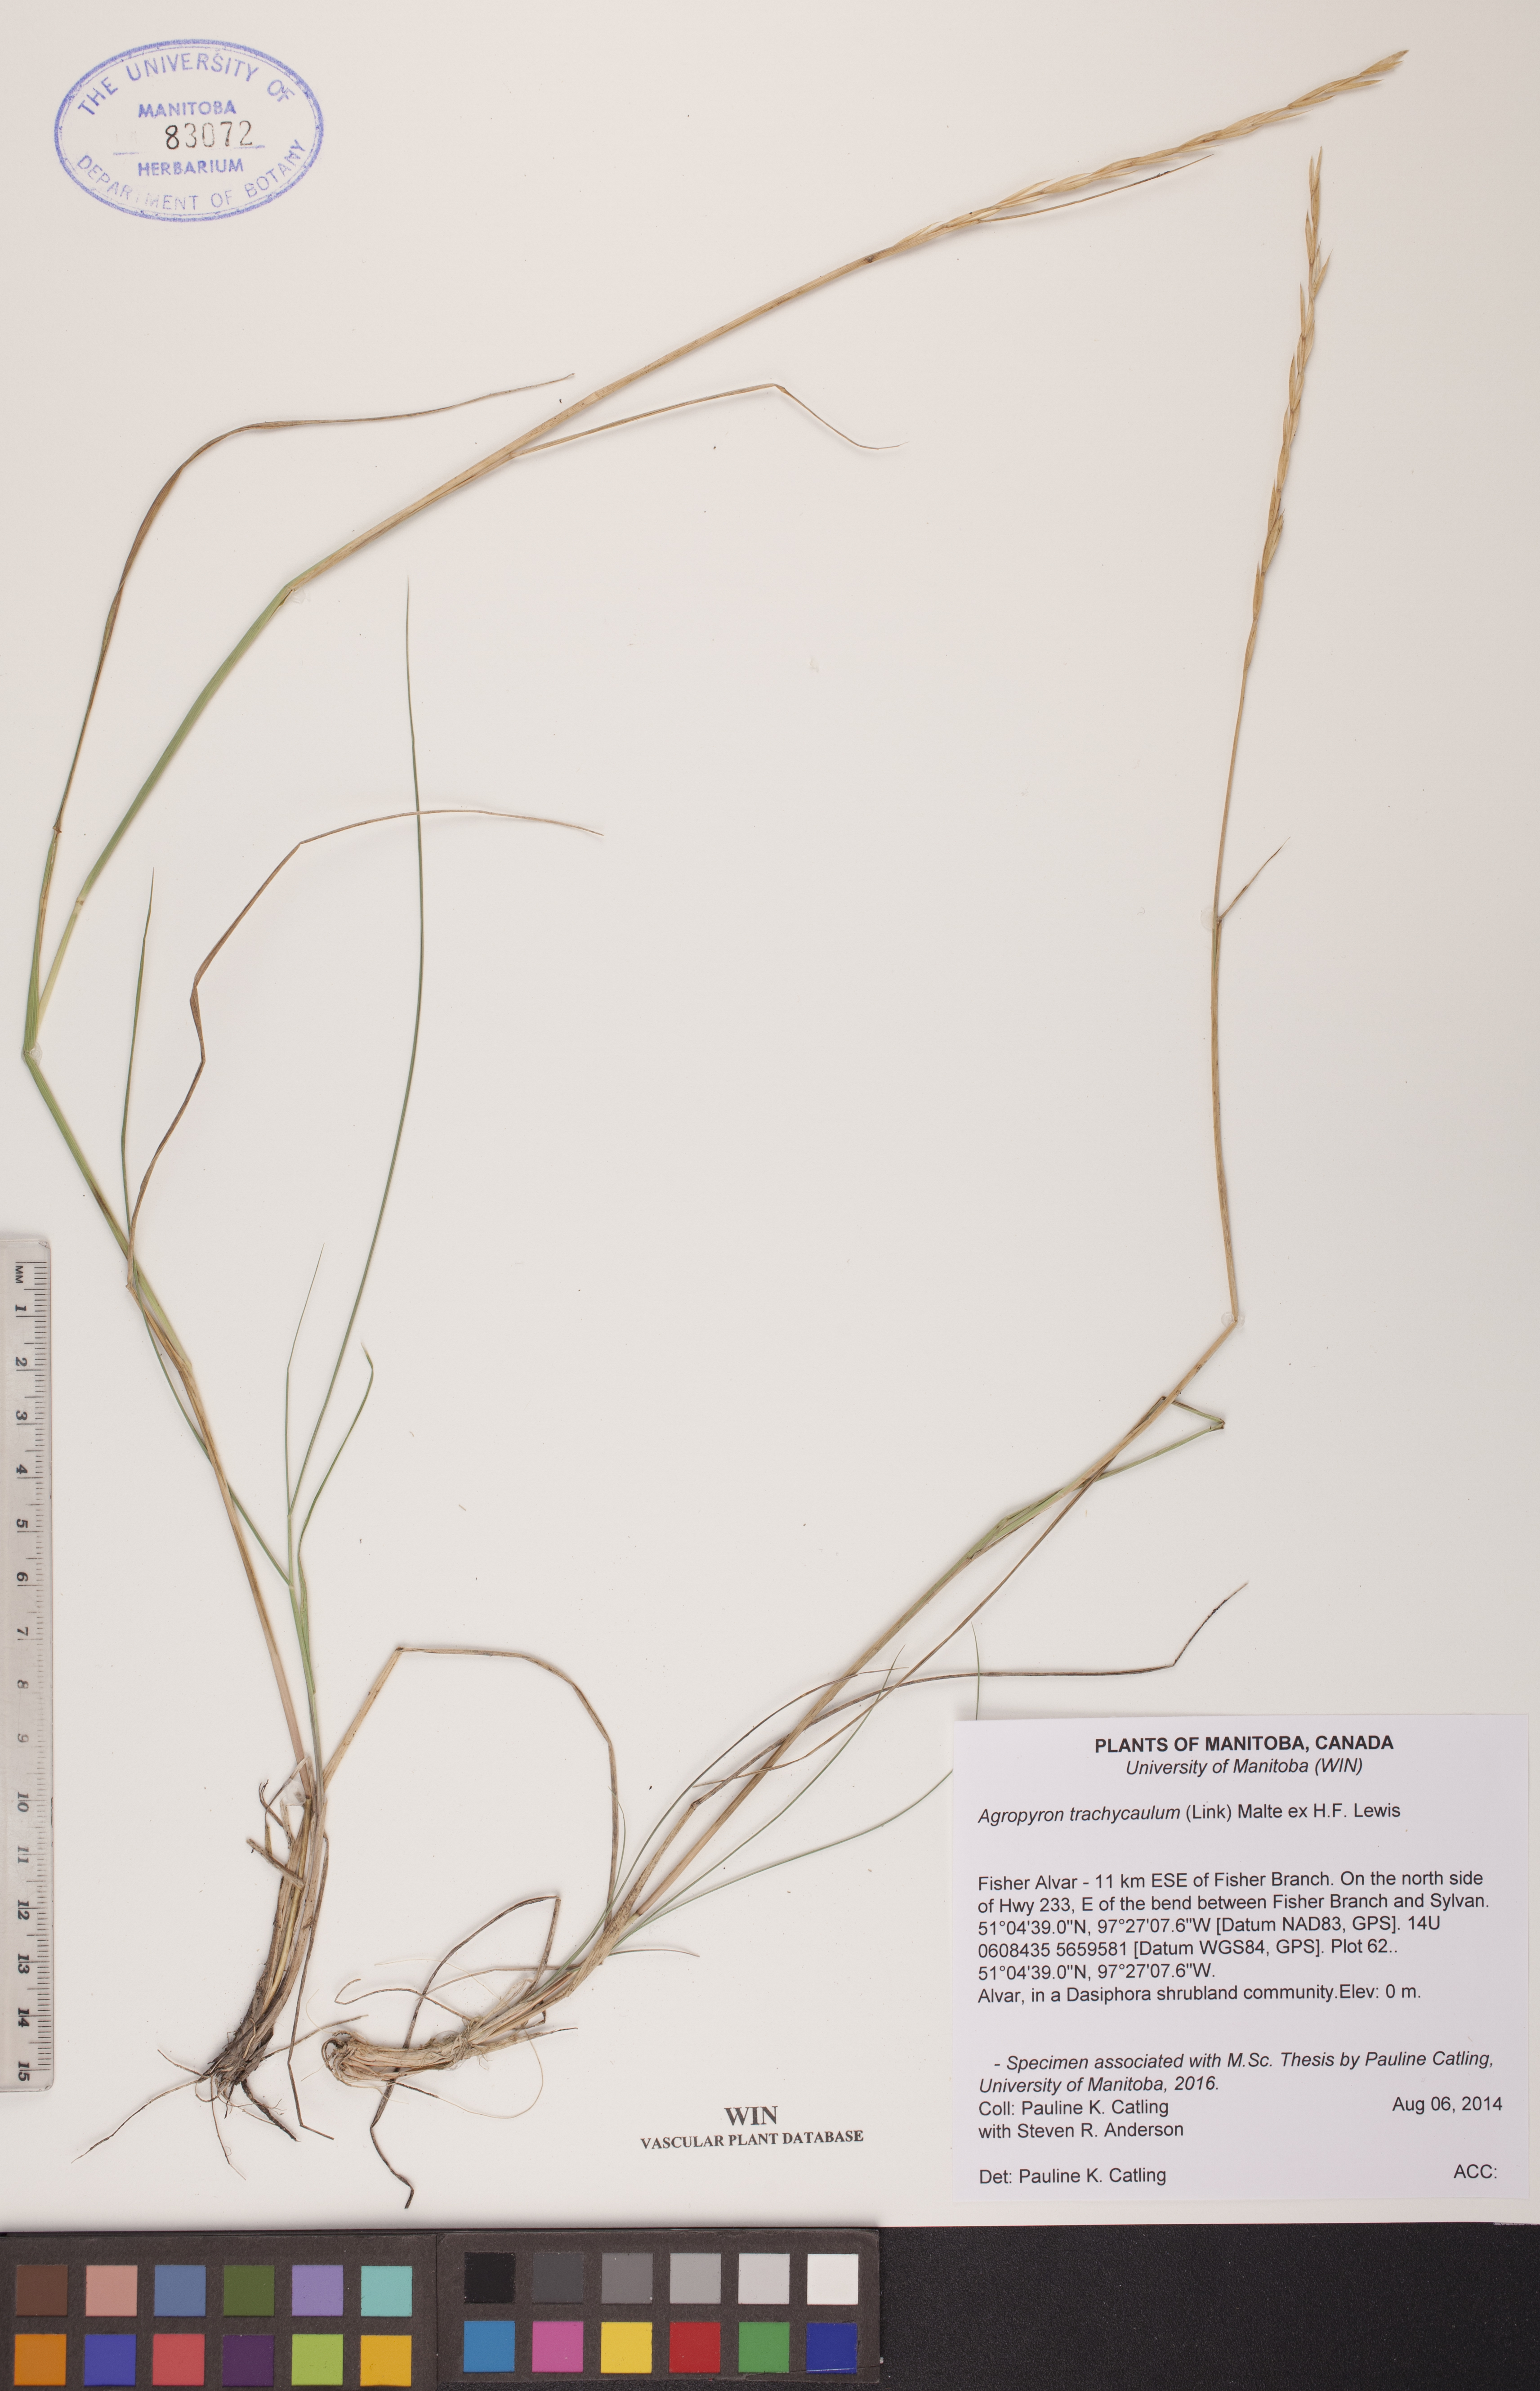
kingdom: Plantae
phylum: Tracheophyta
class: Liliopsida
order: Poales
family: Poaceae
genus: Elymus
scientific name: Elymus violaceus
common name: Arctic wheatgrass
